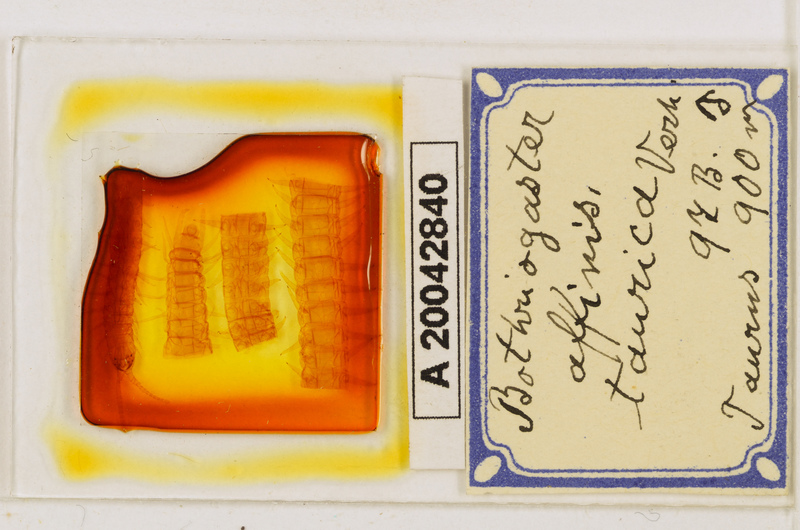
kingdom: Animalia
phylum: Arthropoda
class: Chilopoda
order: Geophilomorpha
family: Himantariidae
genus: Bothriogaster
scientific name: Bothriogaster signata
